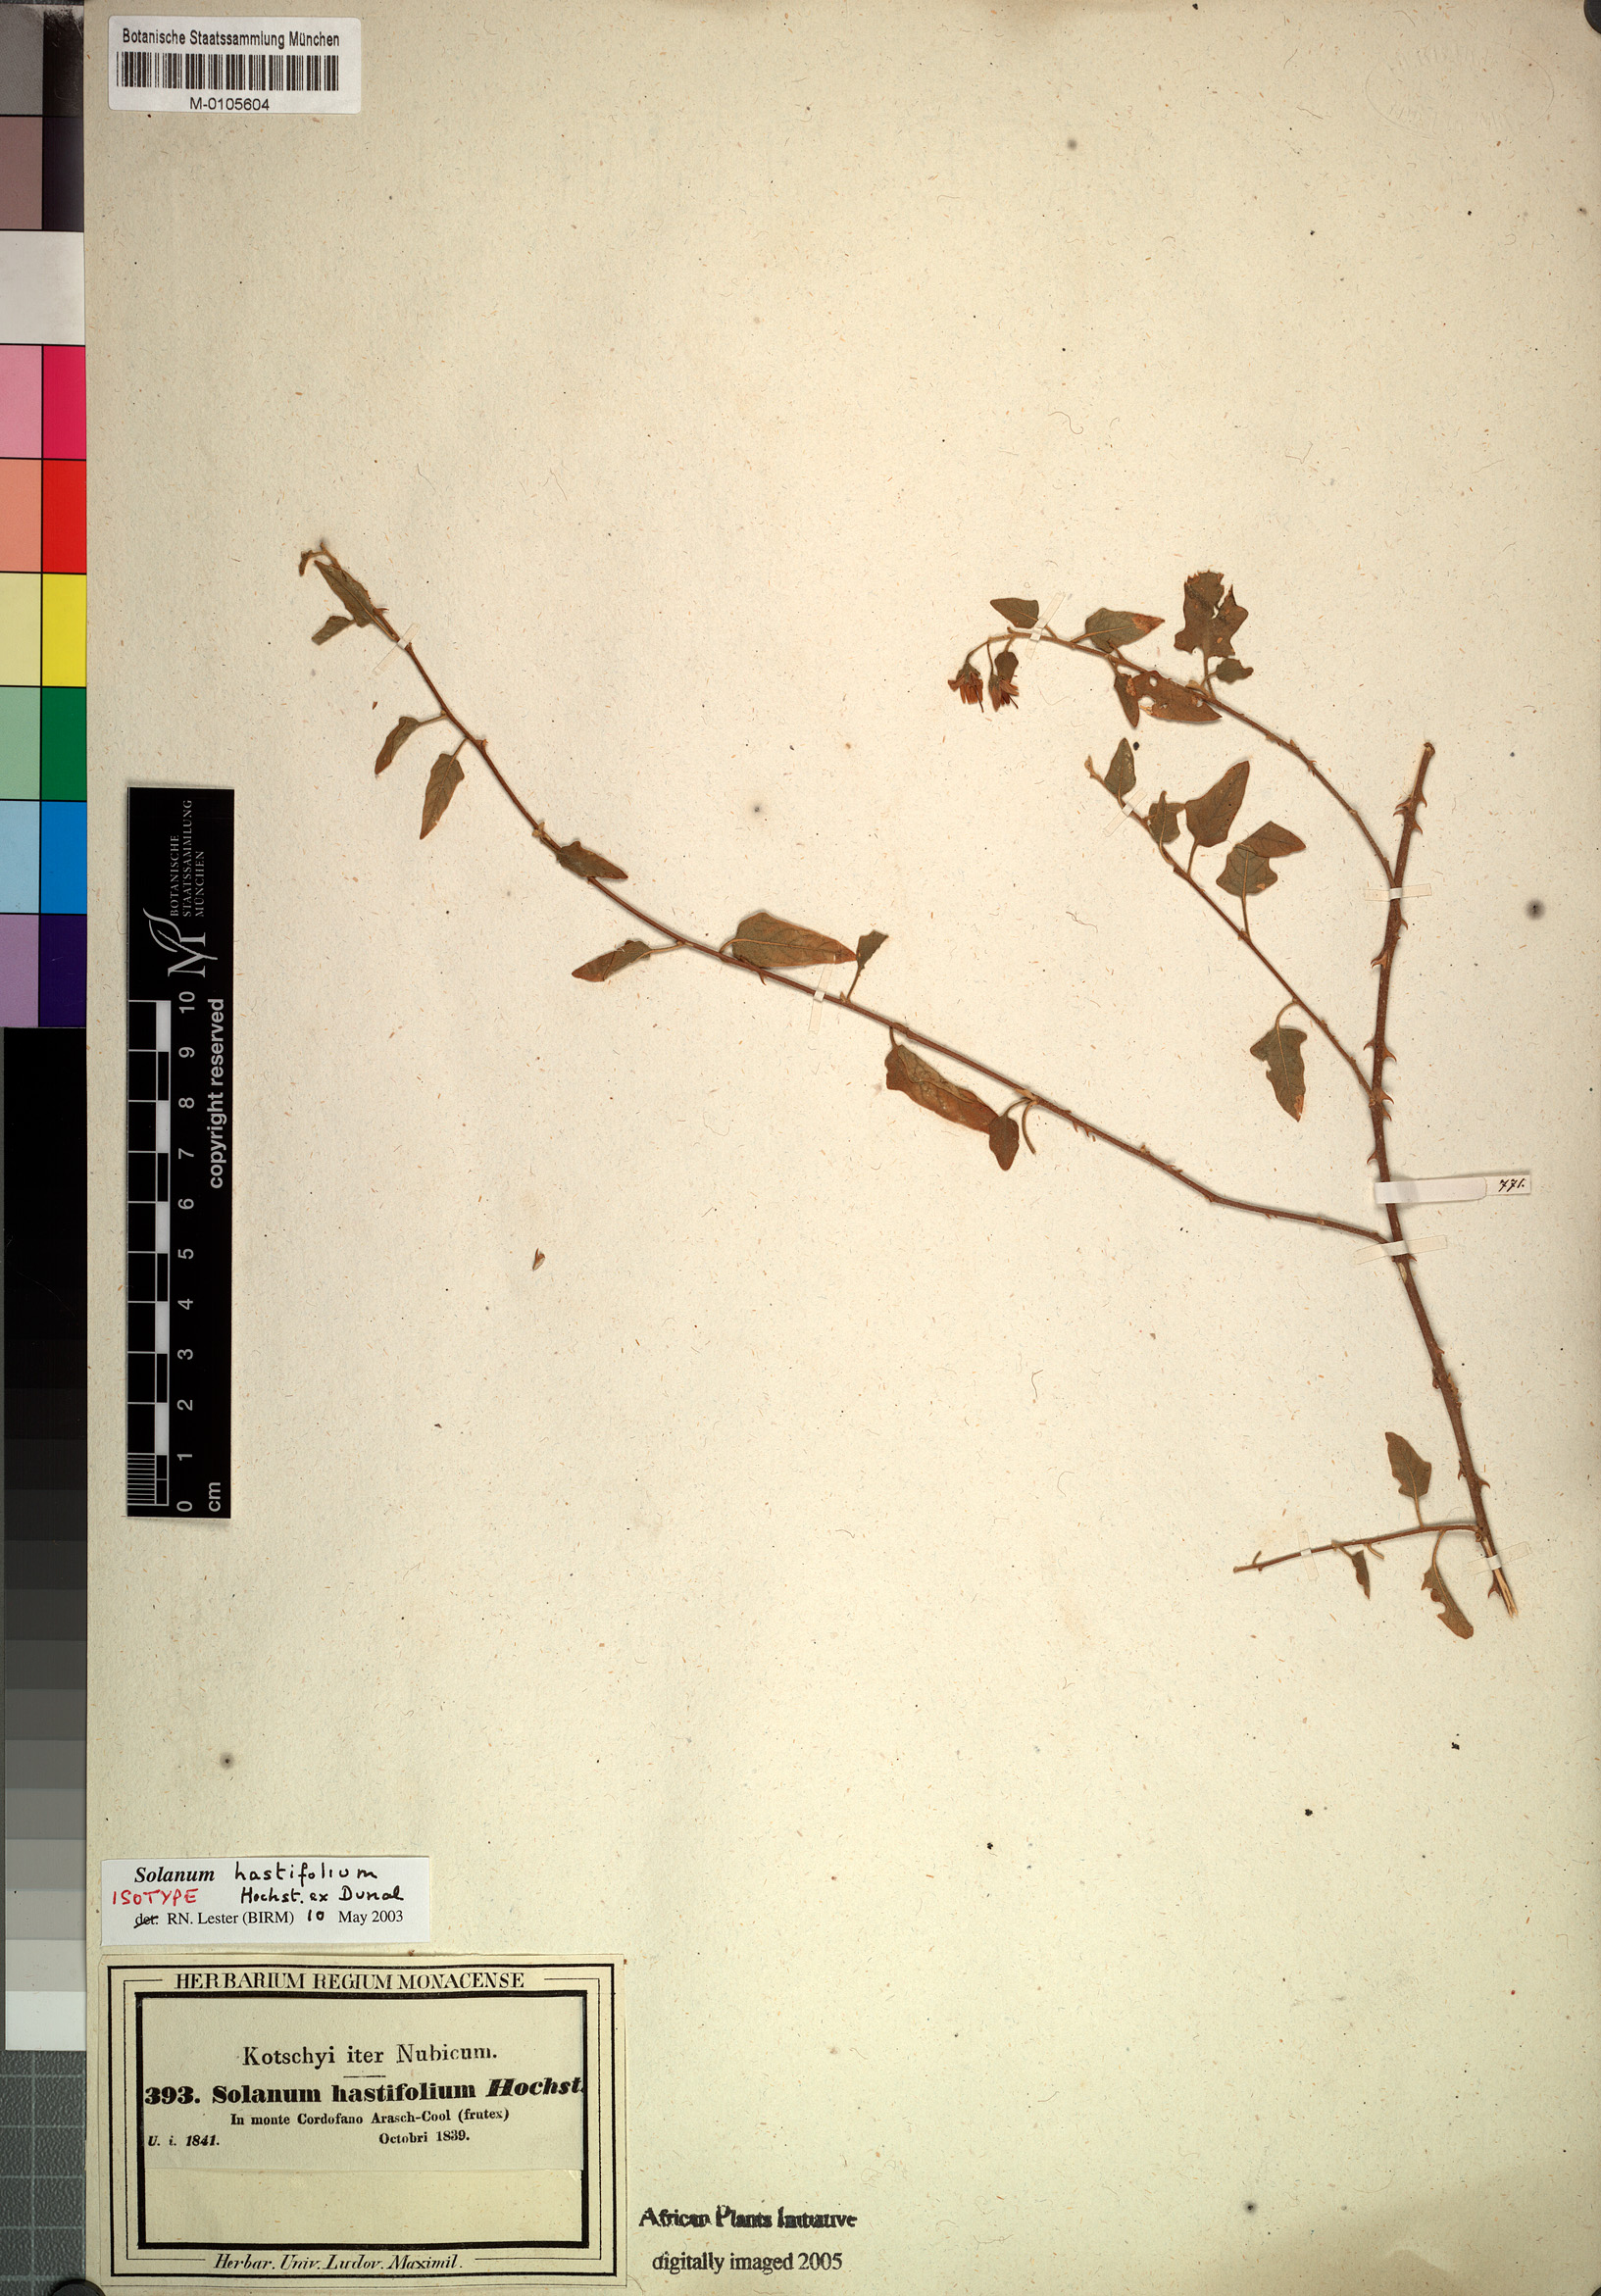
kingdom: Plantae
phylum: Tracheophyta
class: Magnoliopsida
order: Solanales
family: Solanaceae
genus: Solanum
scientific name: Solanum hastifolium
